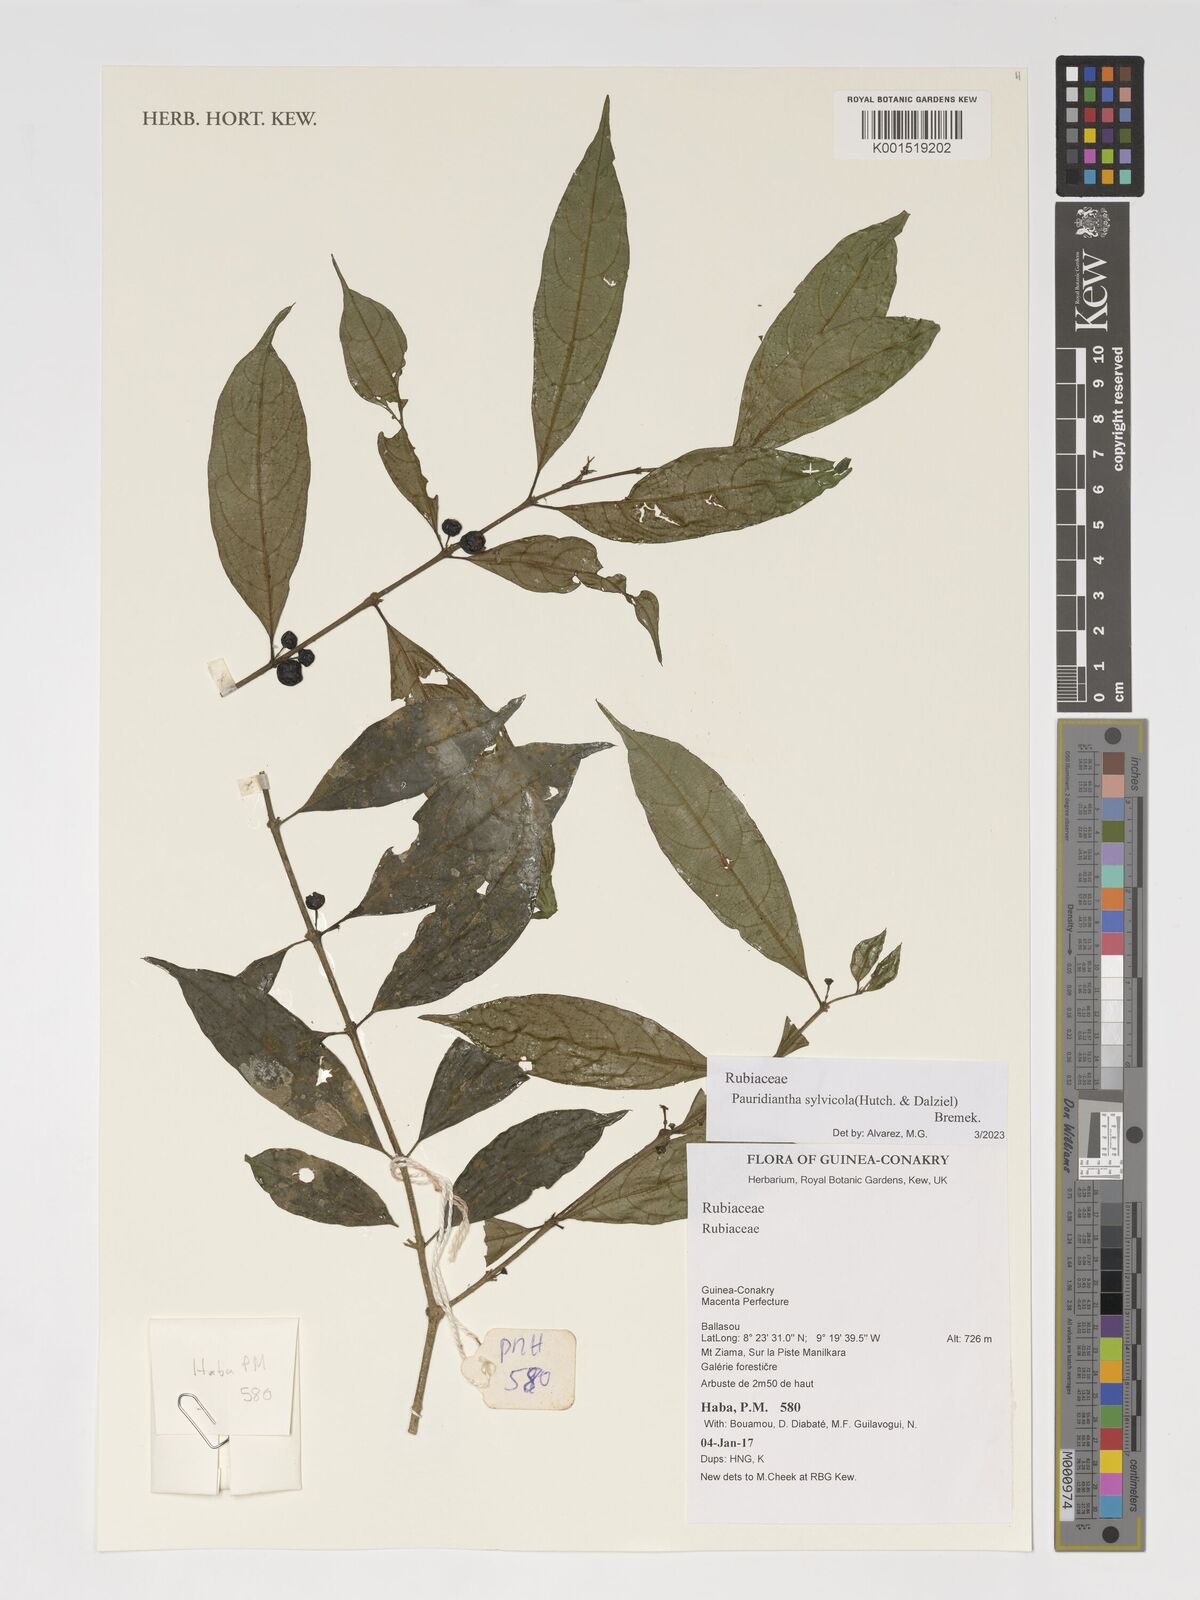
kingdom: Plantae
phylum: Tracheophyta
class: Magnoliopsida
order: Gentianales
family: Rubiaceae
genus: Pauridiantha
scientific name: Pauridiantha sylvicola
